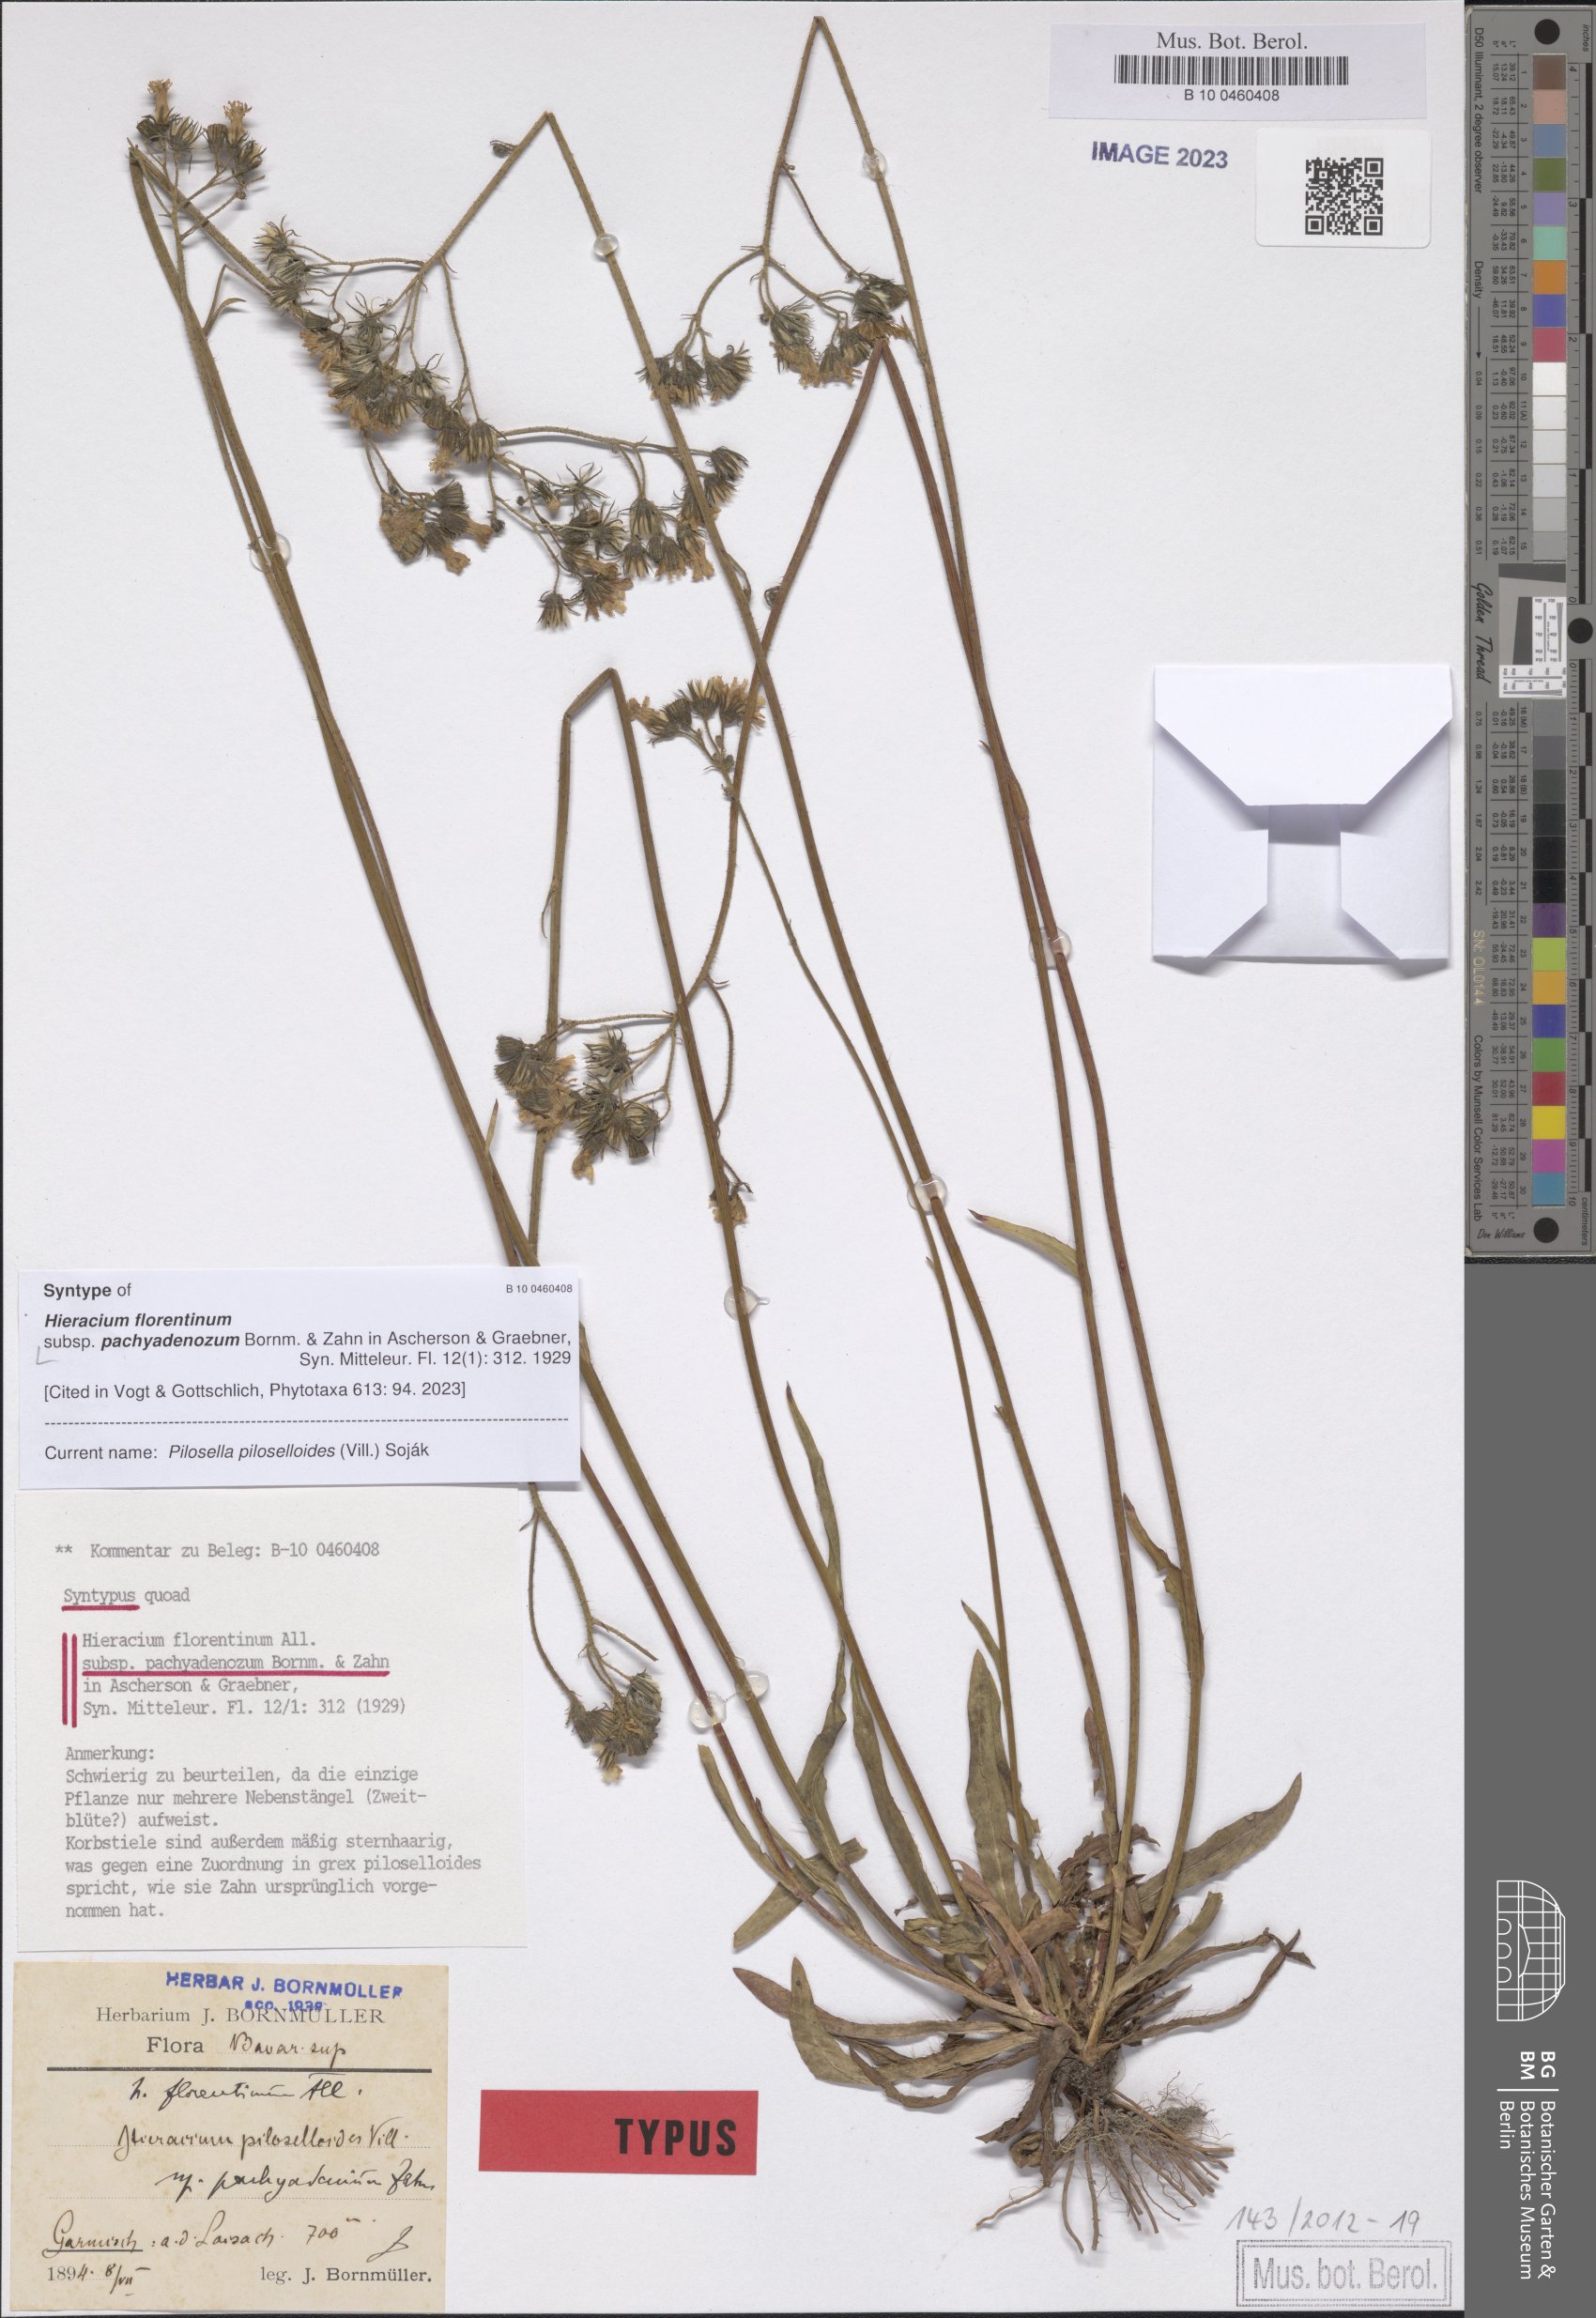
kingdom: Plantae
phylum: Tracheophyta
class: Magnoliopsida
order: Asterales
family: Asteraceae
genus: Hieracium
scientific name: Hieracium florentinum
